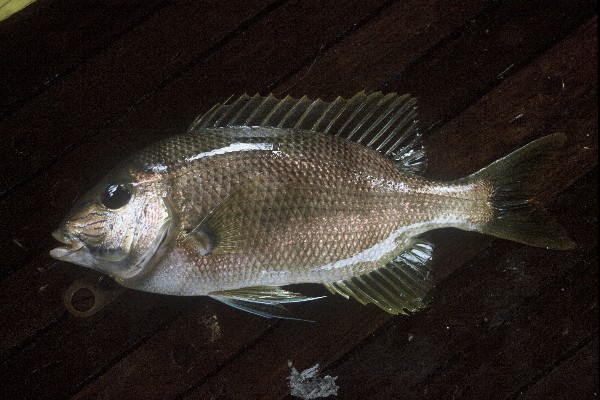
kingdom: Animalia
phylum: Chordata
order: Perciformes
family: Lethrinidae
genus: Gymnocranius
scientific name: Gymnocranius grandoculis
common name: Blue-lined large-eye bream
